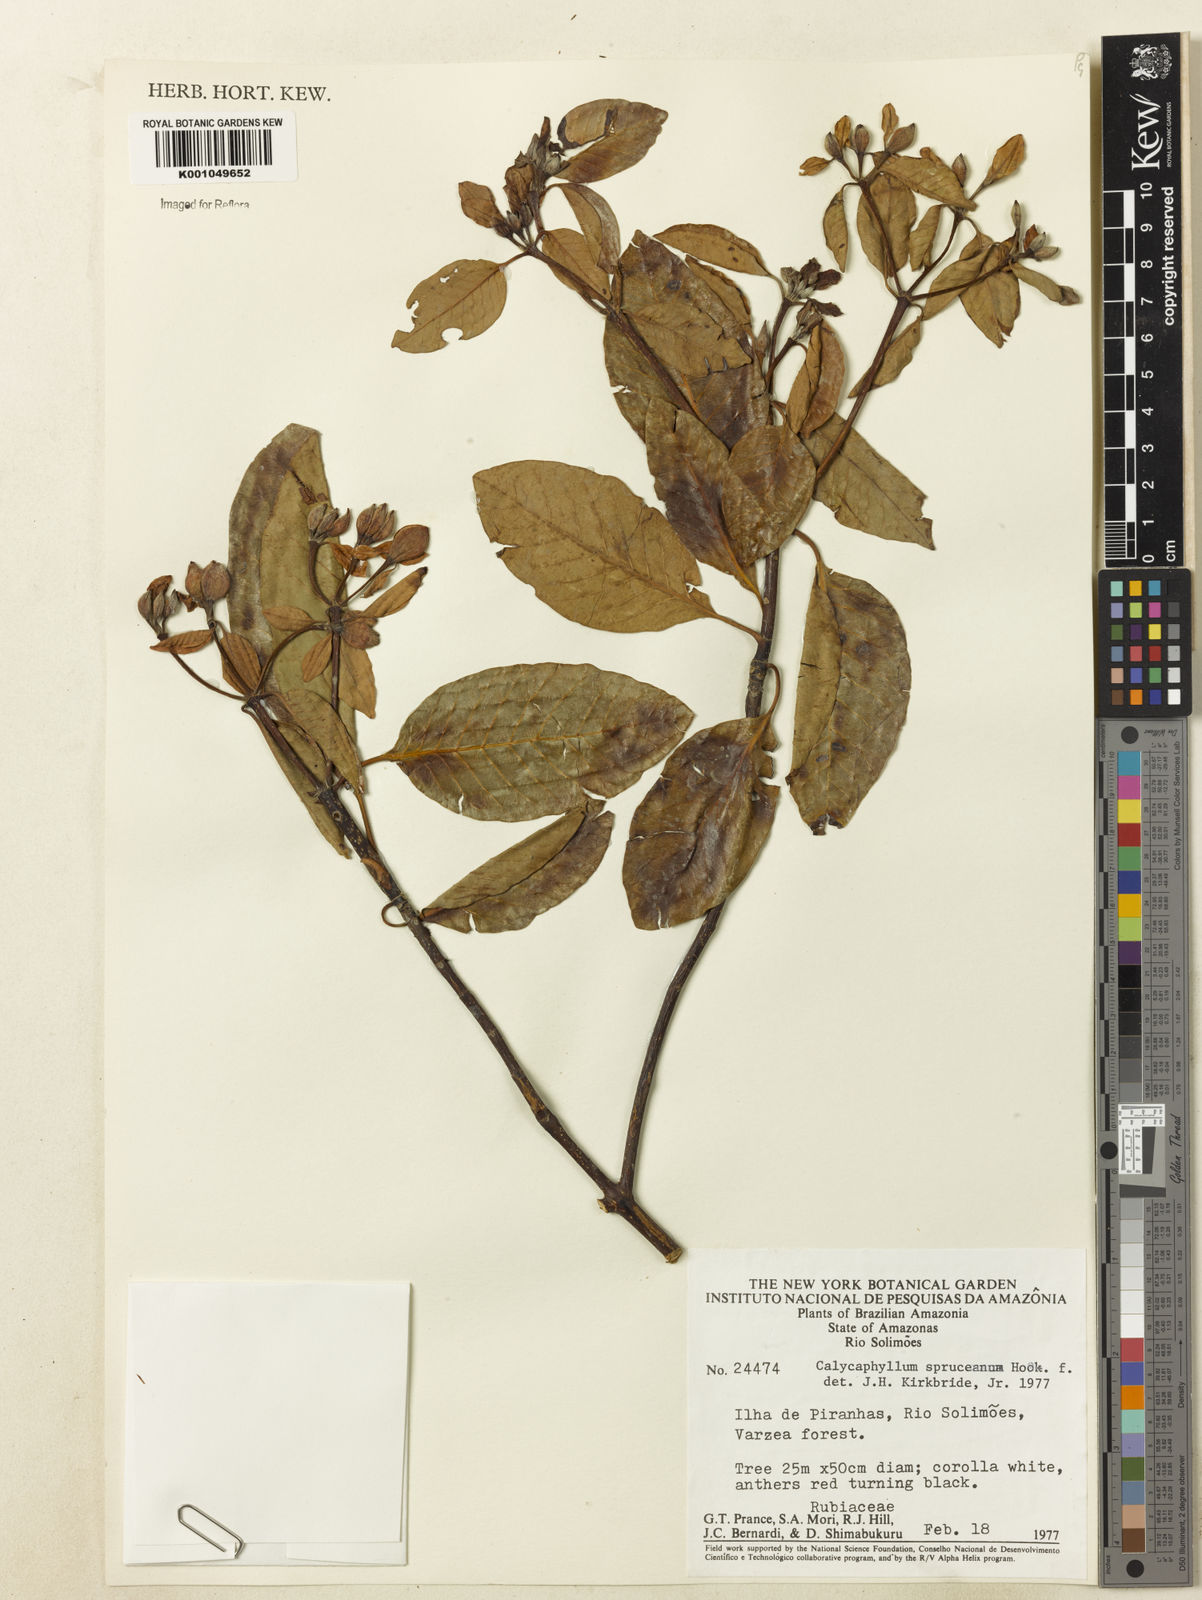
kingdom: Plantae
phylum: Tracheophyta
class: Magnoliopsida
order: Gentianales
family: Rubiaceae
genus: Calycophyllum
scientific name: Calycophyllum spruceanum
